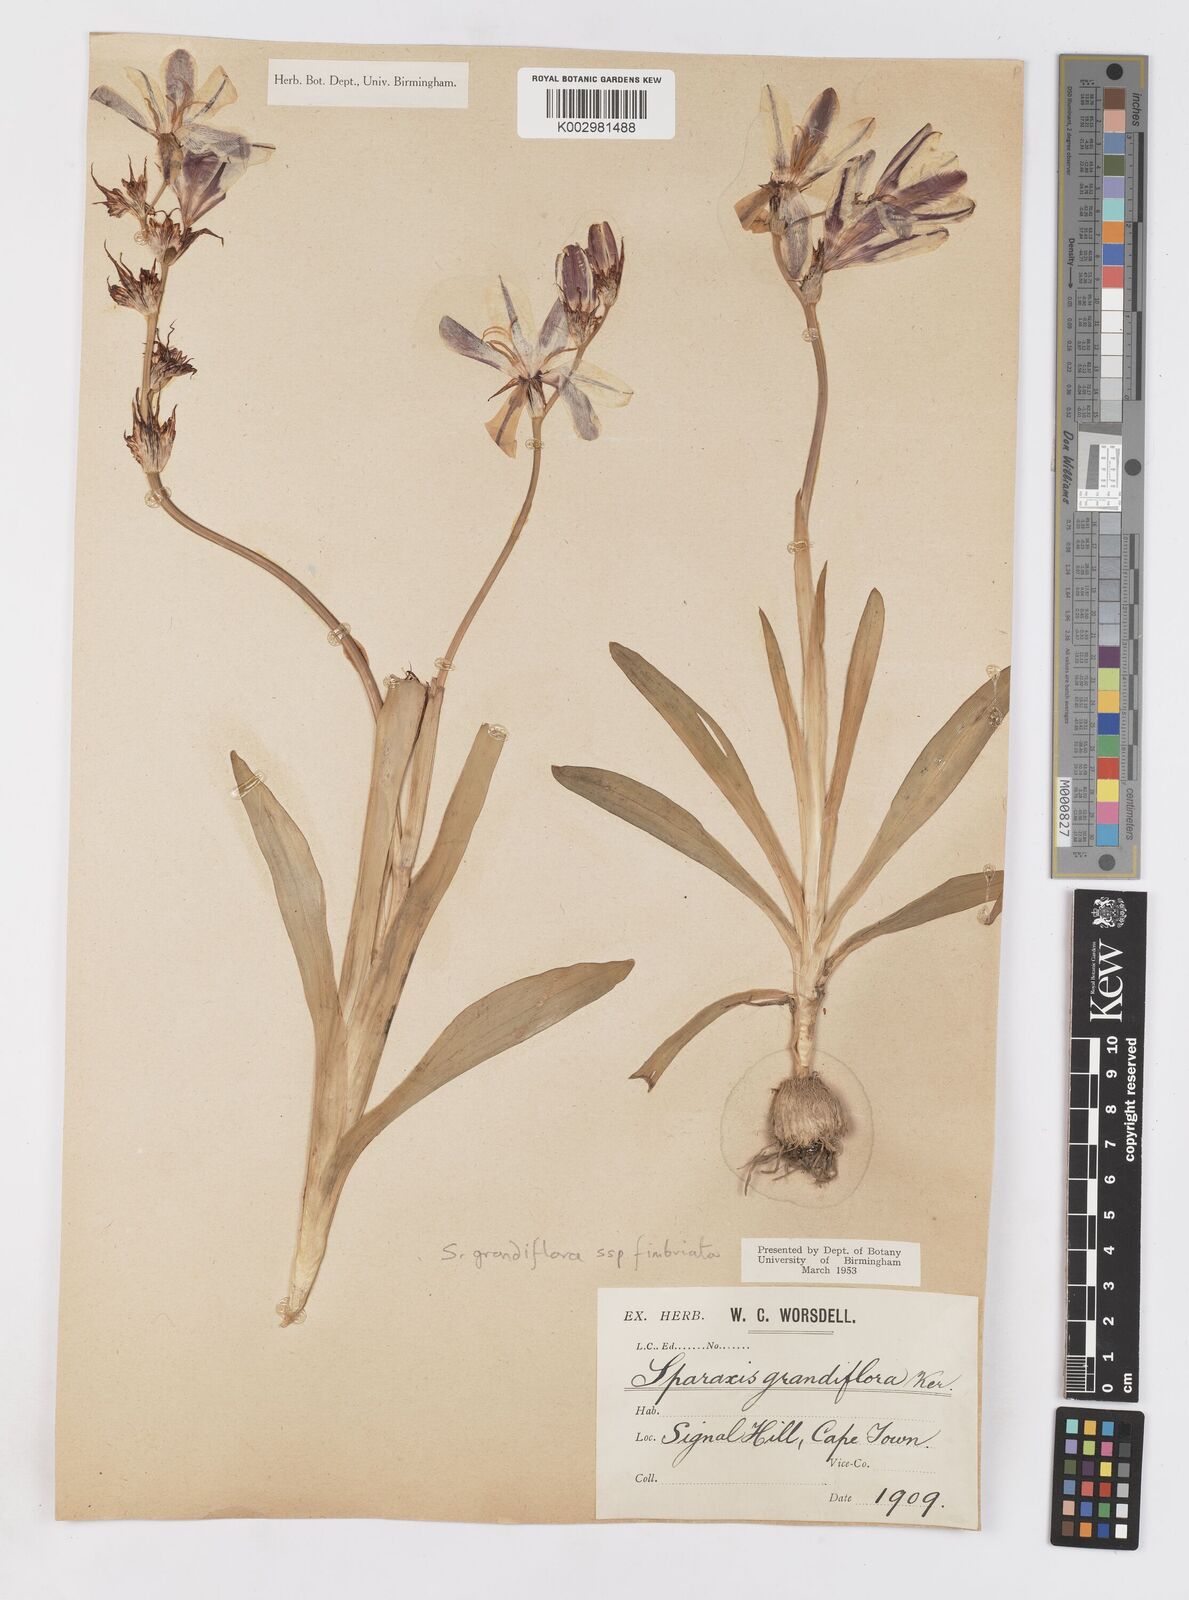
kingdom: Plantae
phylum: Tracheophyta
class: Liliopsida
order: Asparagales
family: Iridaceae
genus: Sparaxis
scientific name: Sparaxis grandiflora
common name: Plain harlequin-flower
